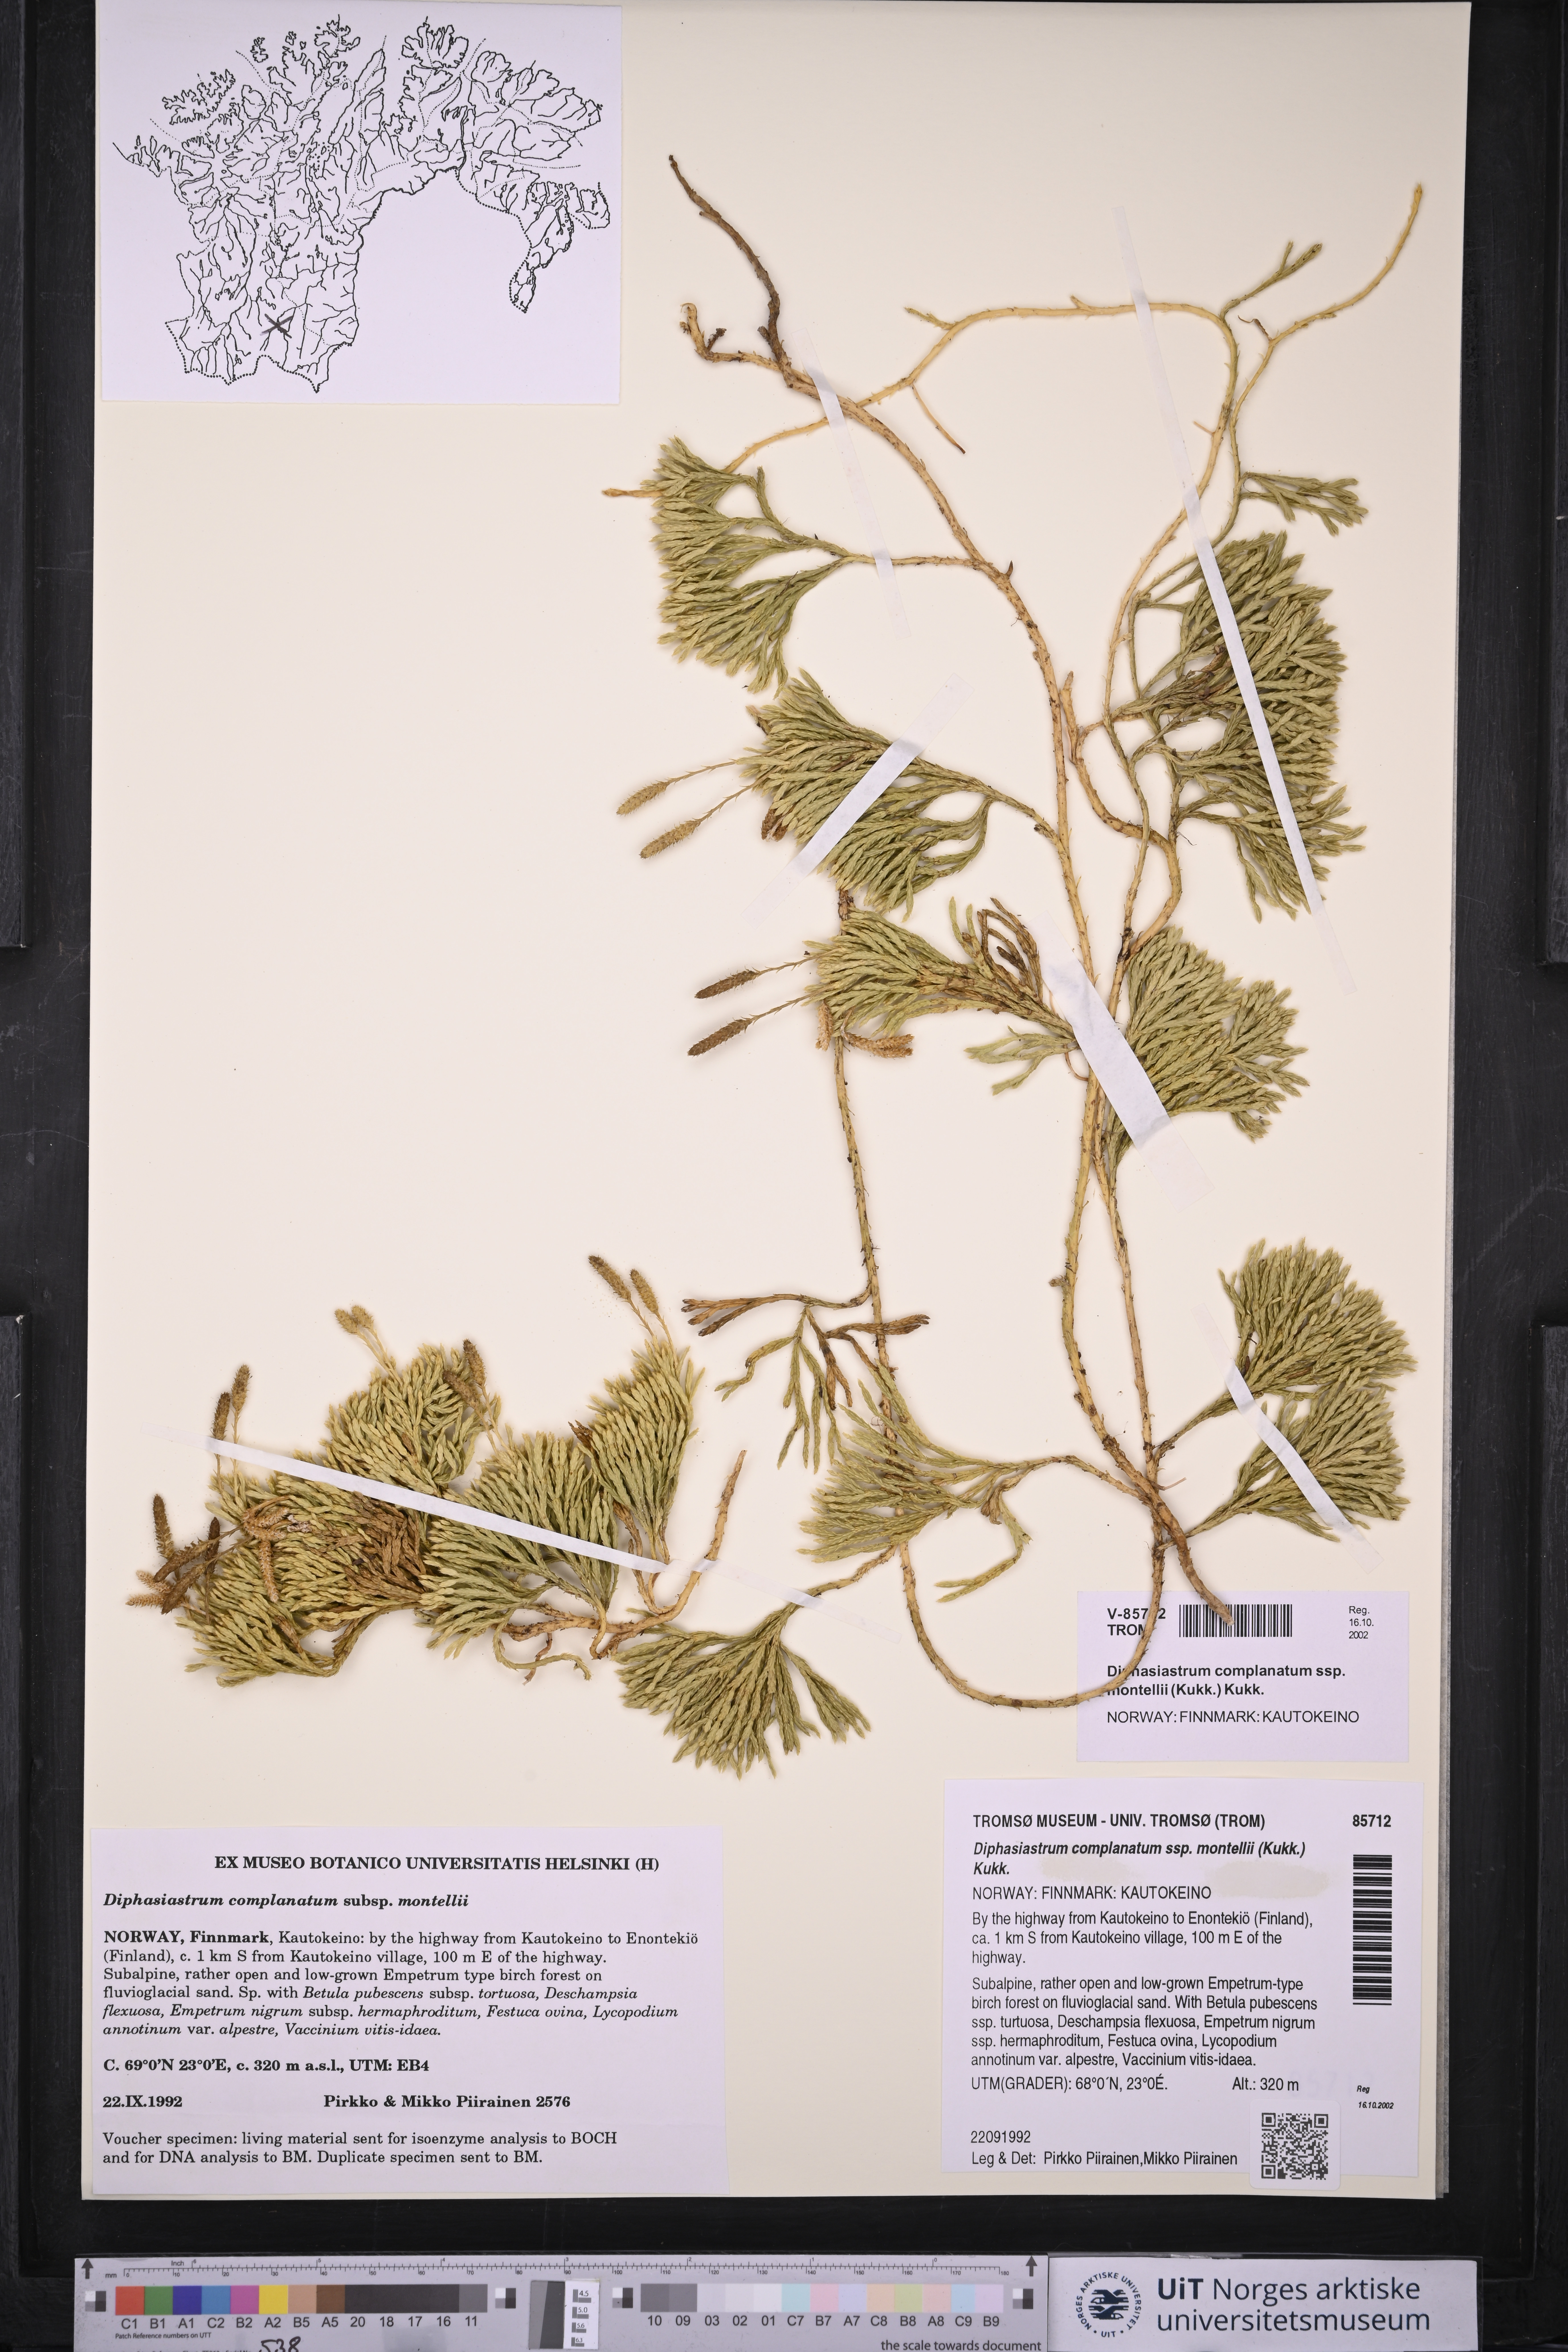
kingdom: Plantae
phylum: Tracheophyta
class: Lycopodiopsida
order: Lycopodiales
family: Lycopodiaceae
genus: Diphasiastrum
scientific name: Diphasiastrum complanatum
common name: Northern running-pine
